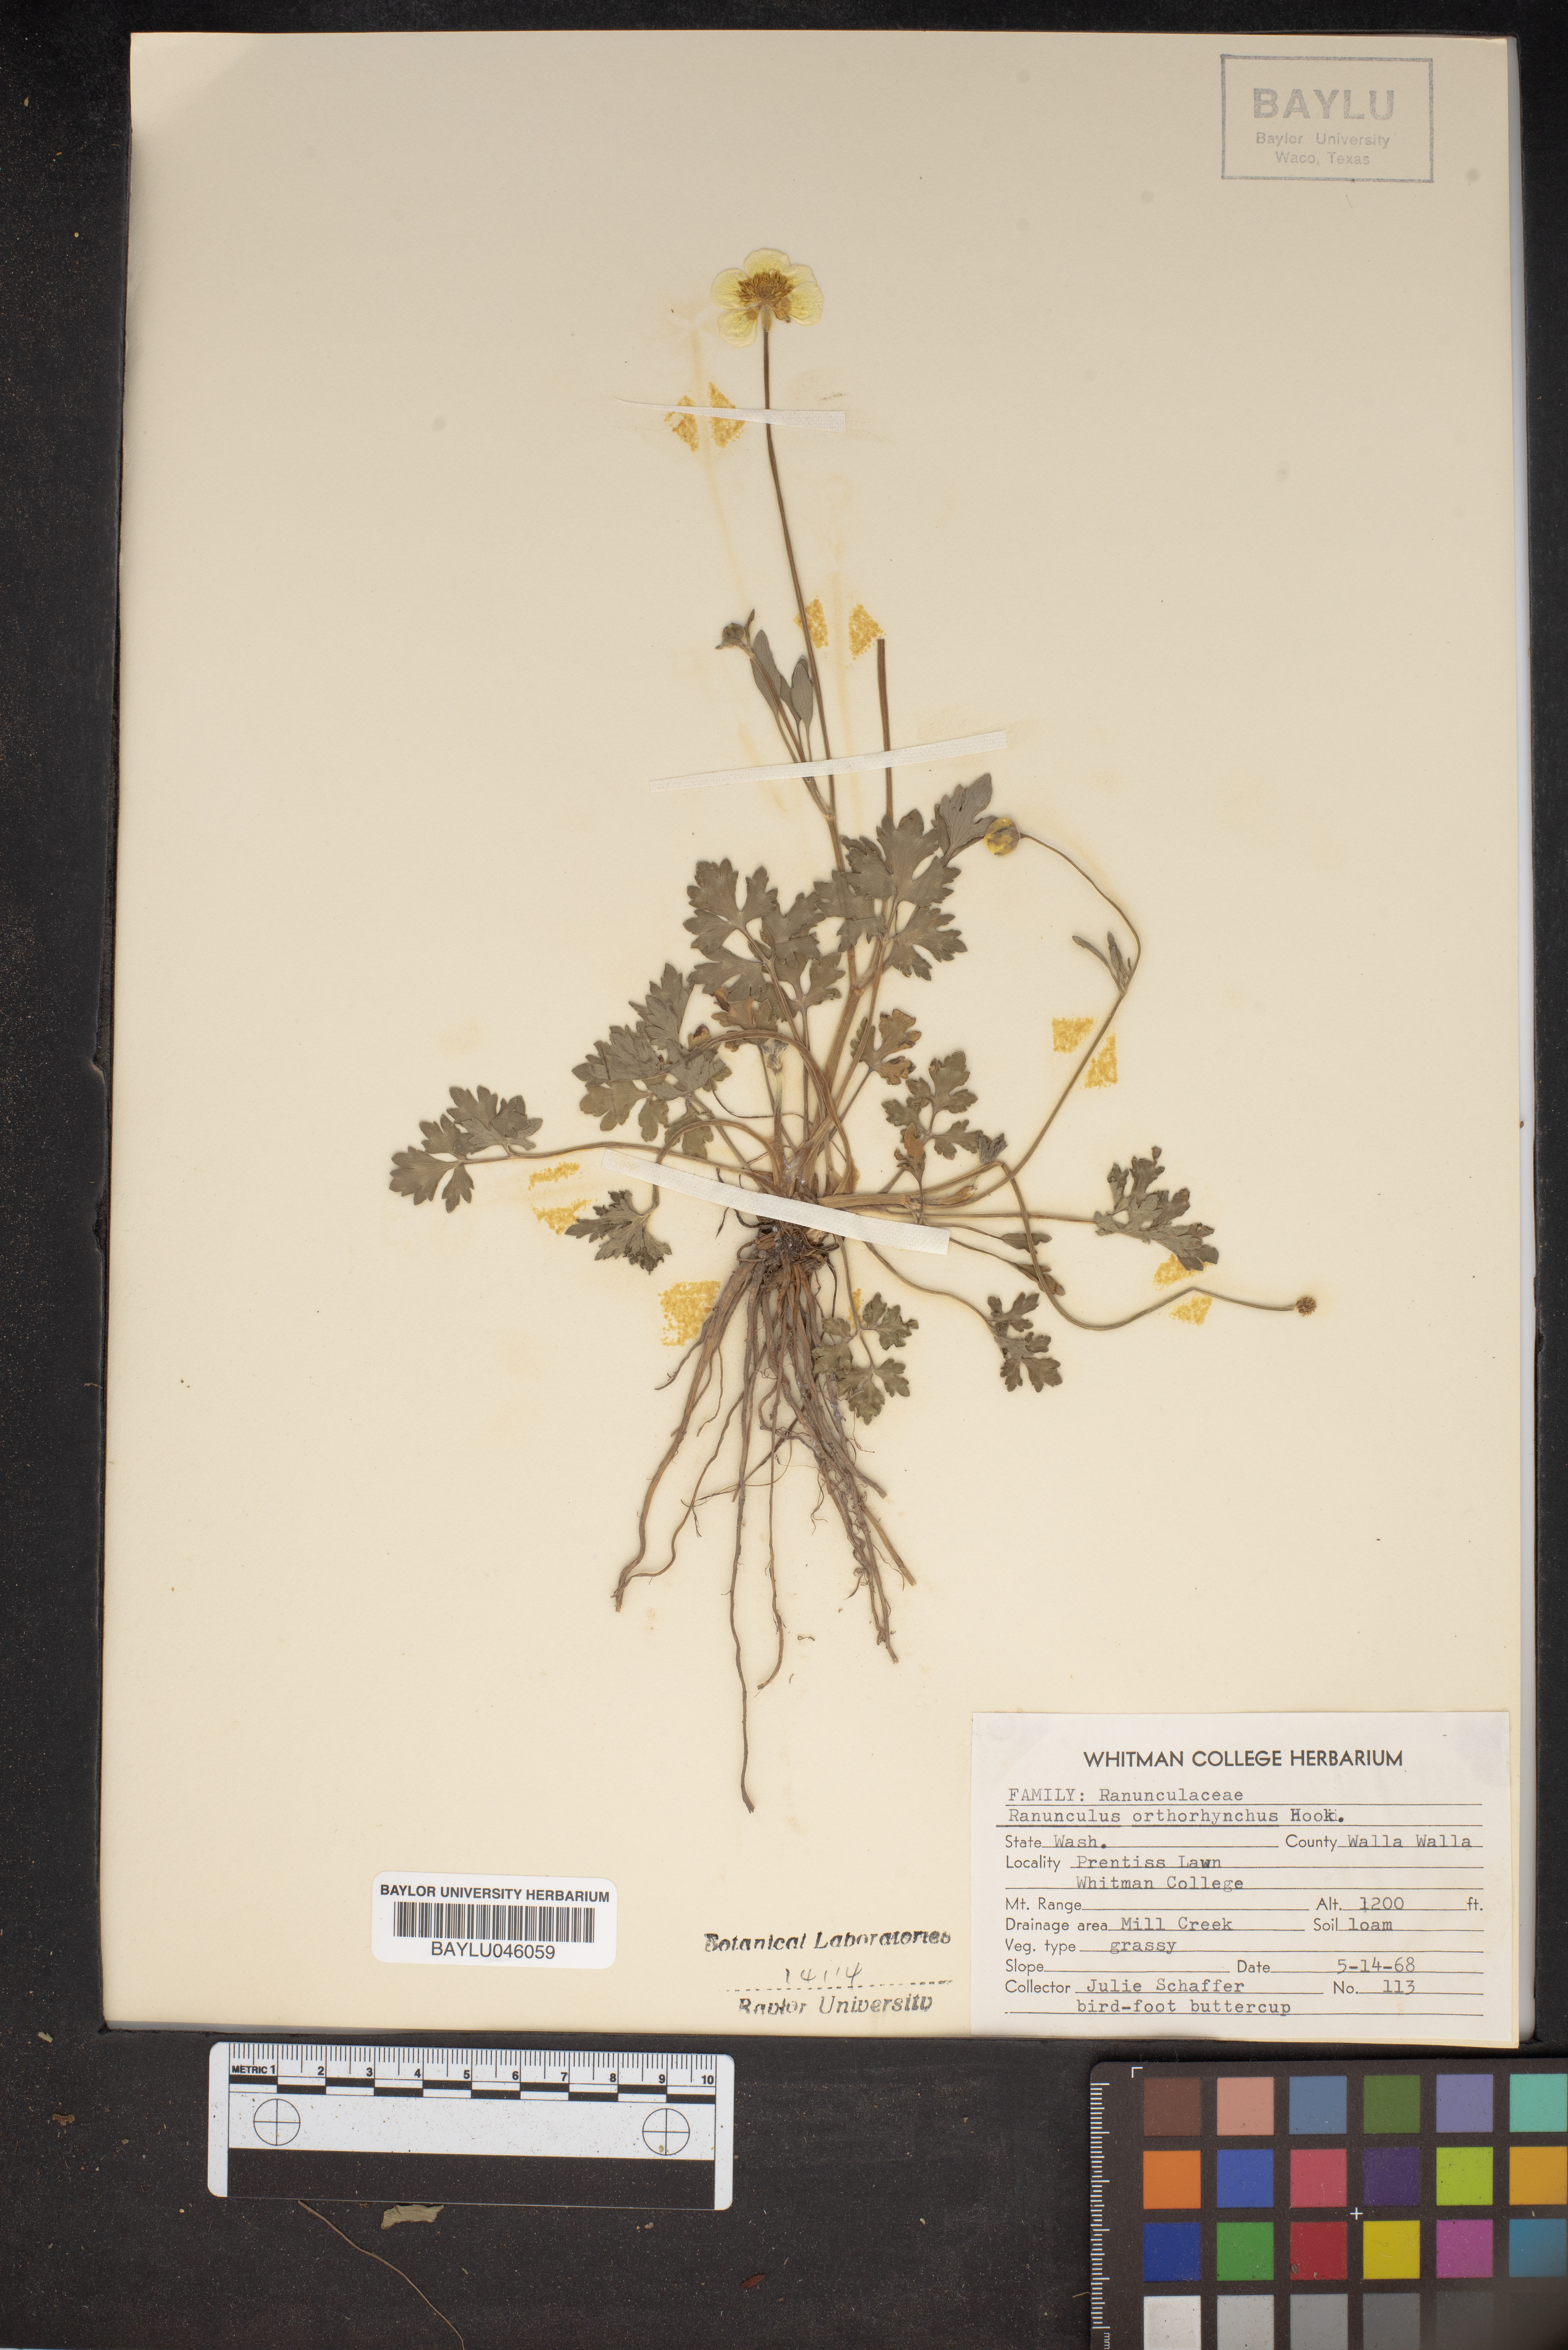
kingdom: Plantae
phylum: Tracheophyta
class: Magnoliopsida
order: Ranunculales
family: Ranunculaceae
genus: Ranunculus
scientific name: Ranunculus orthorhynchus
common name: Straight-beak buttercup
